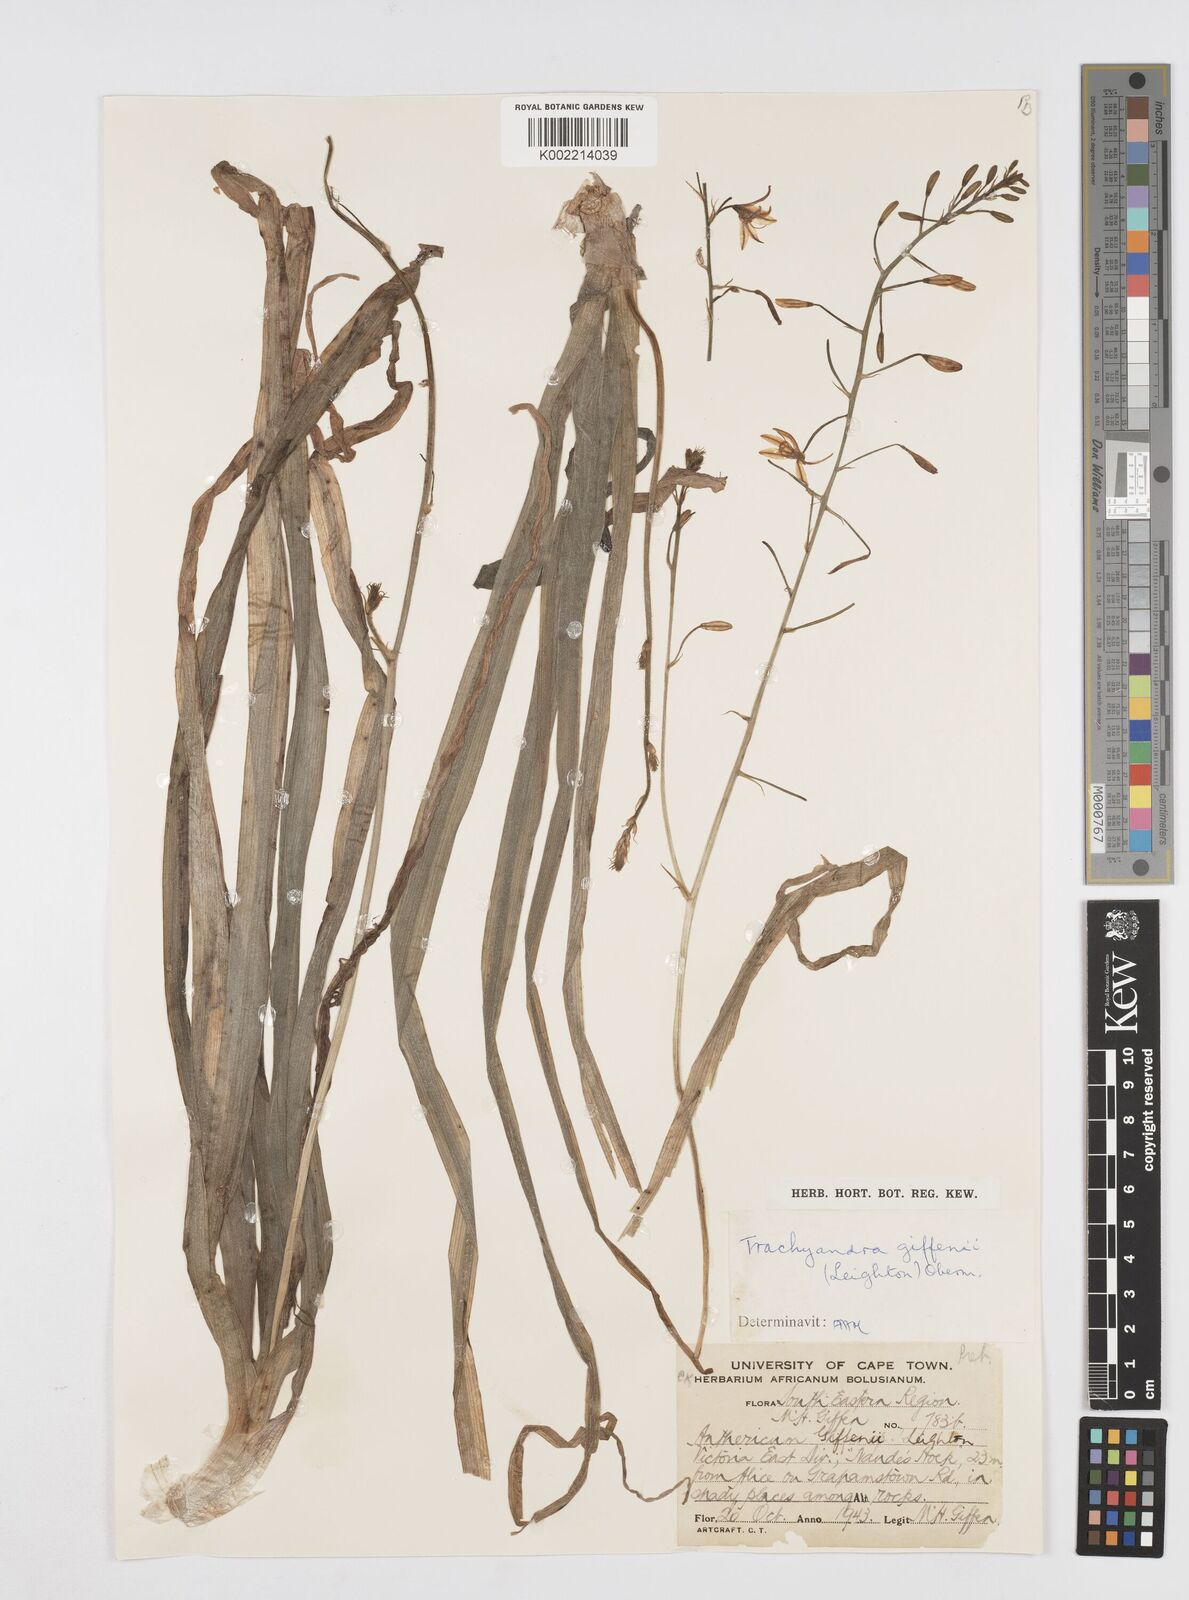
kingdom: Plantae
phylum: Tracheophyta
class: Liliopsida
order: Asparagales
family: Asphodelaceae
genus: Trachyandra
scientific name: Trachyandra giffenii
